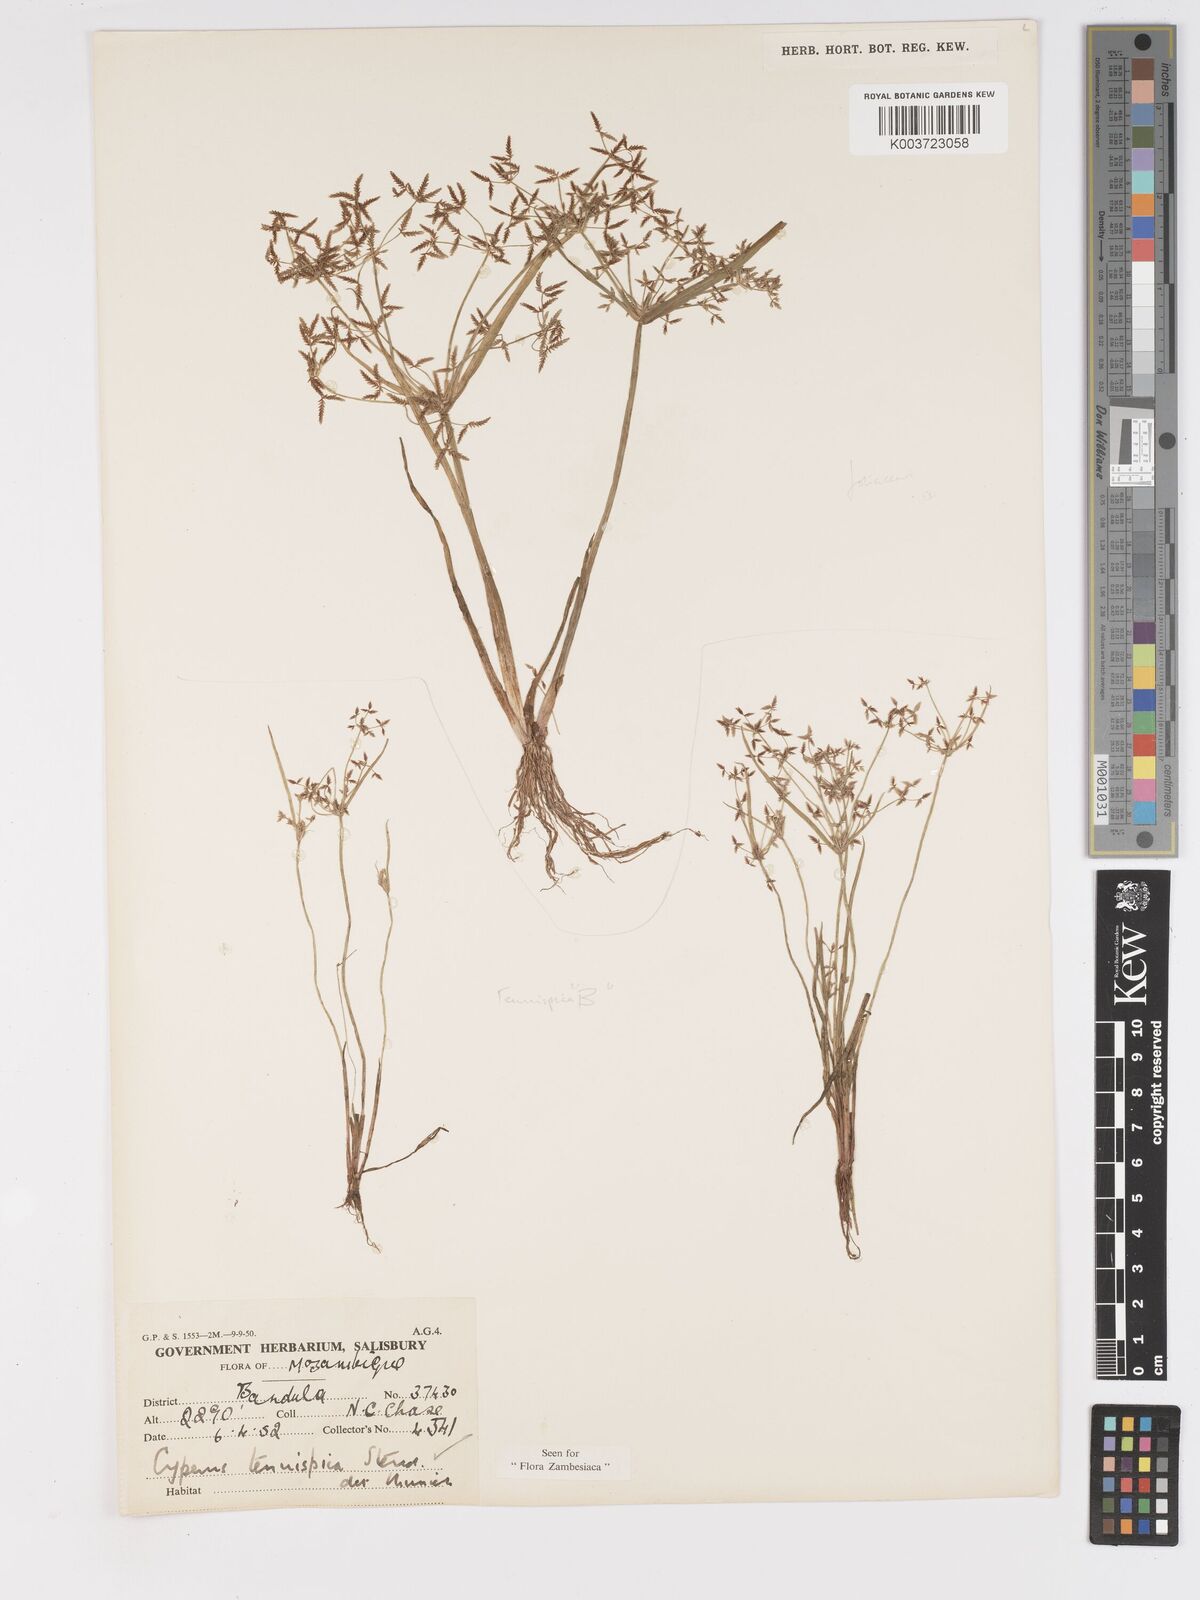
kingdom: Plantae
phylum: Tracheophyta
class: Liliopsida
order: Poales
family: Cyperaceae
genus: Cyperus
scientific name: Cyperus tenuispica
